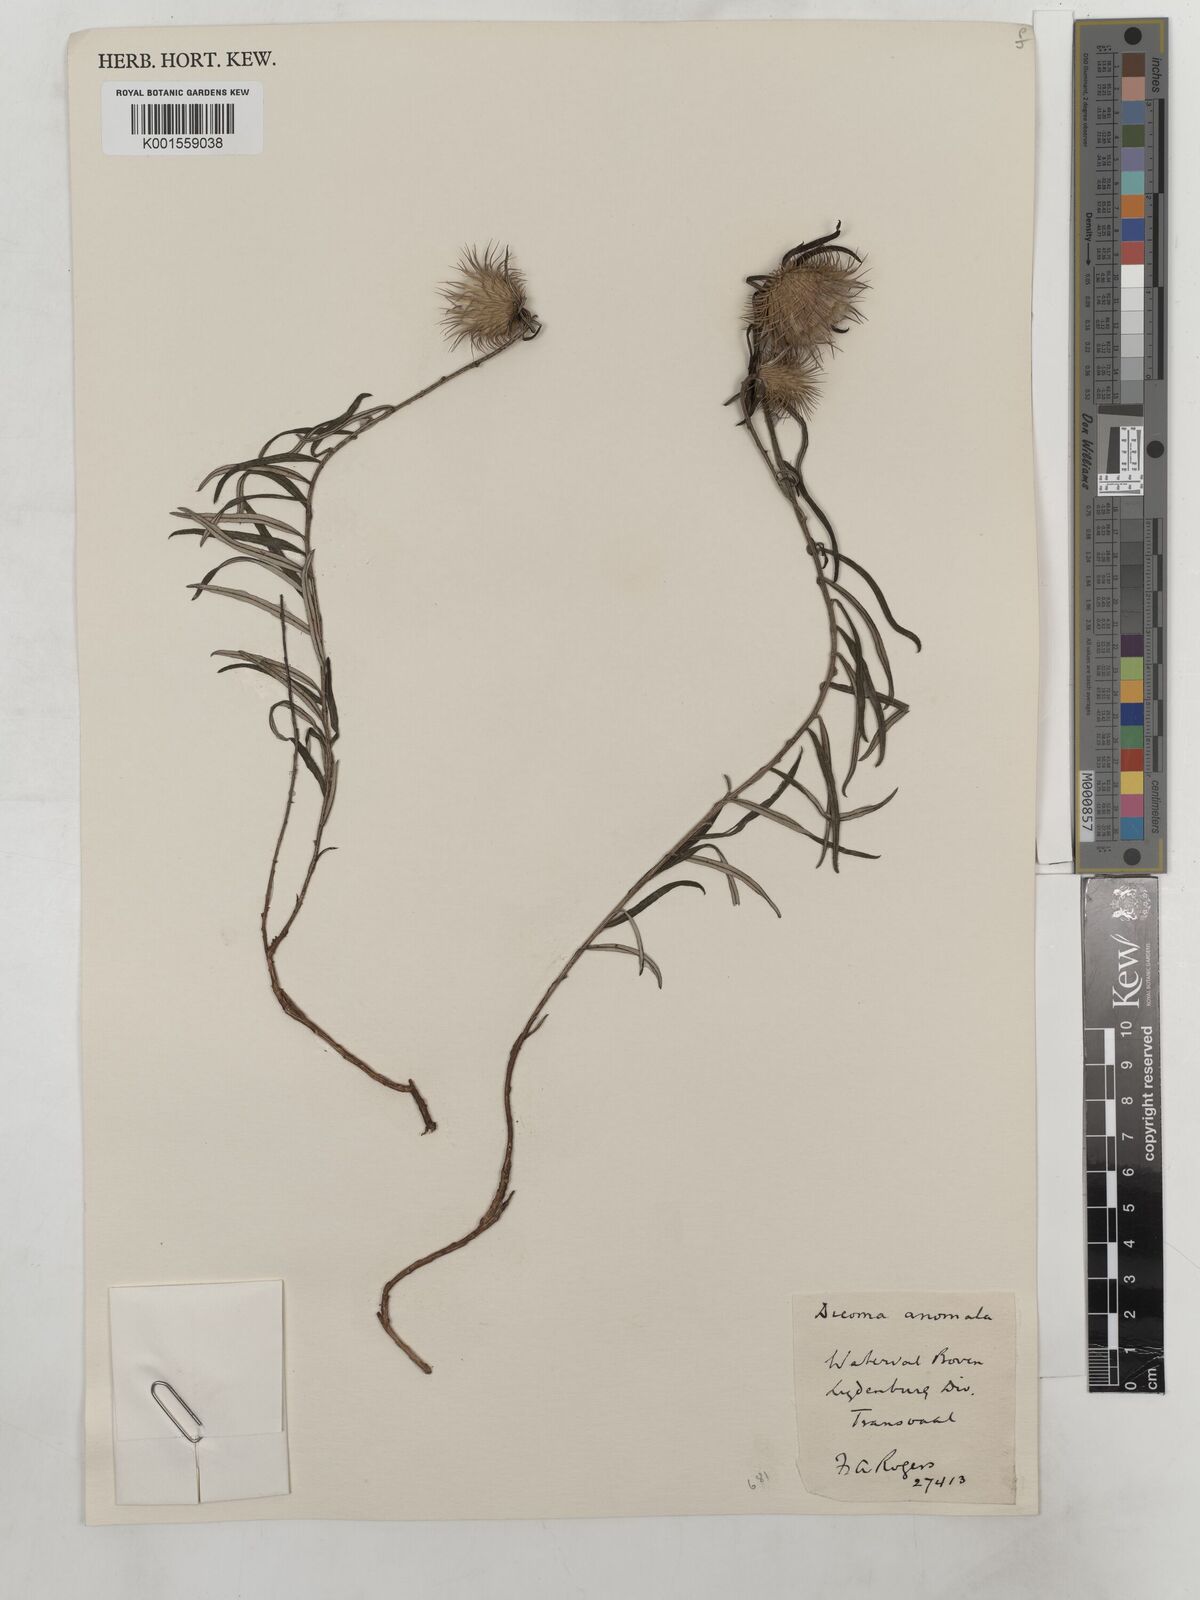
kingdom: Plantae
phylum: Tracheophyta
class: Magnoliopsida
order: Asterales
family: Asteraceae
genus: Dicoma
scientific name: Dicoma anomala
